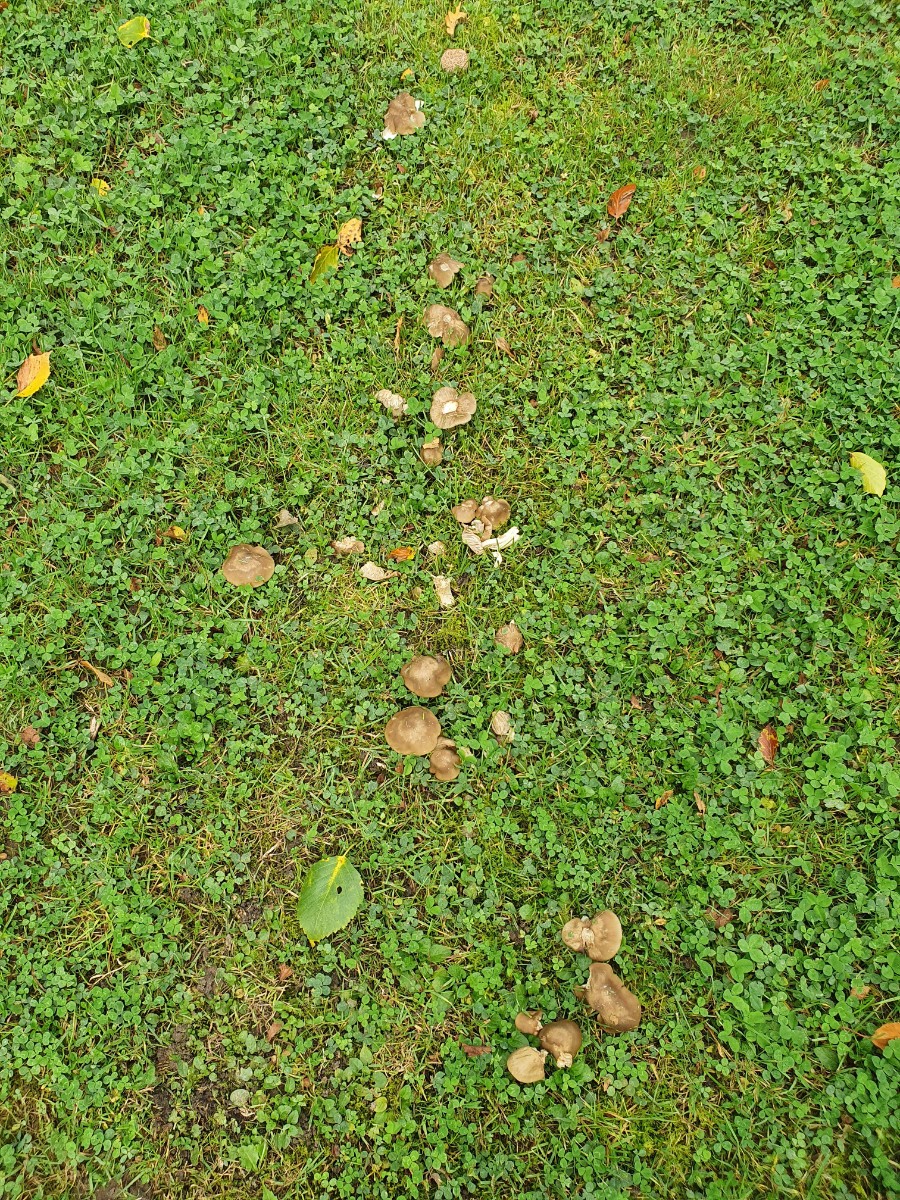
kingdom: Fungi
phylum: Basidiomycota
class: Agaricomycetes
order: Agaricales
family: Entolomataceae
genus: Entoloma
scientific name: Entoloma lividoalbum
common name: lysstokket rødblad
